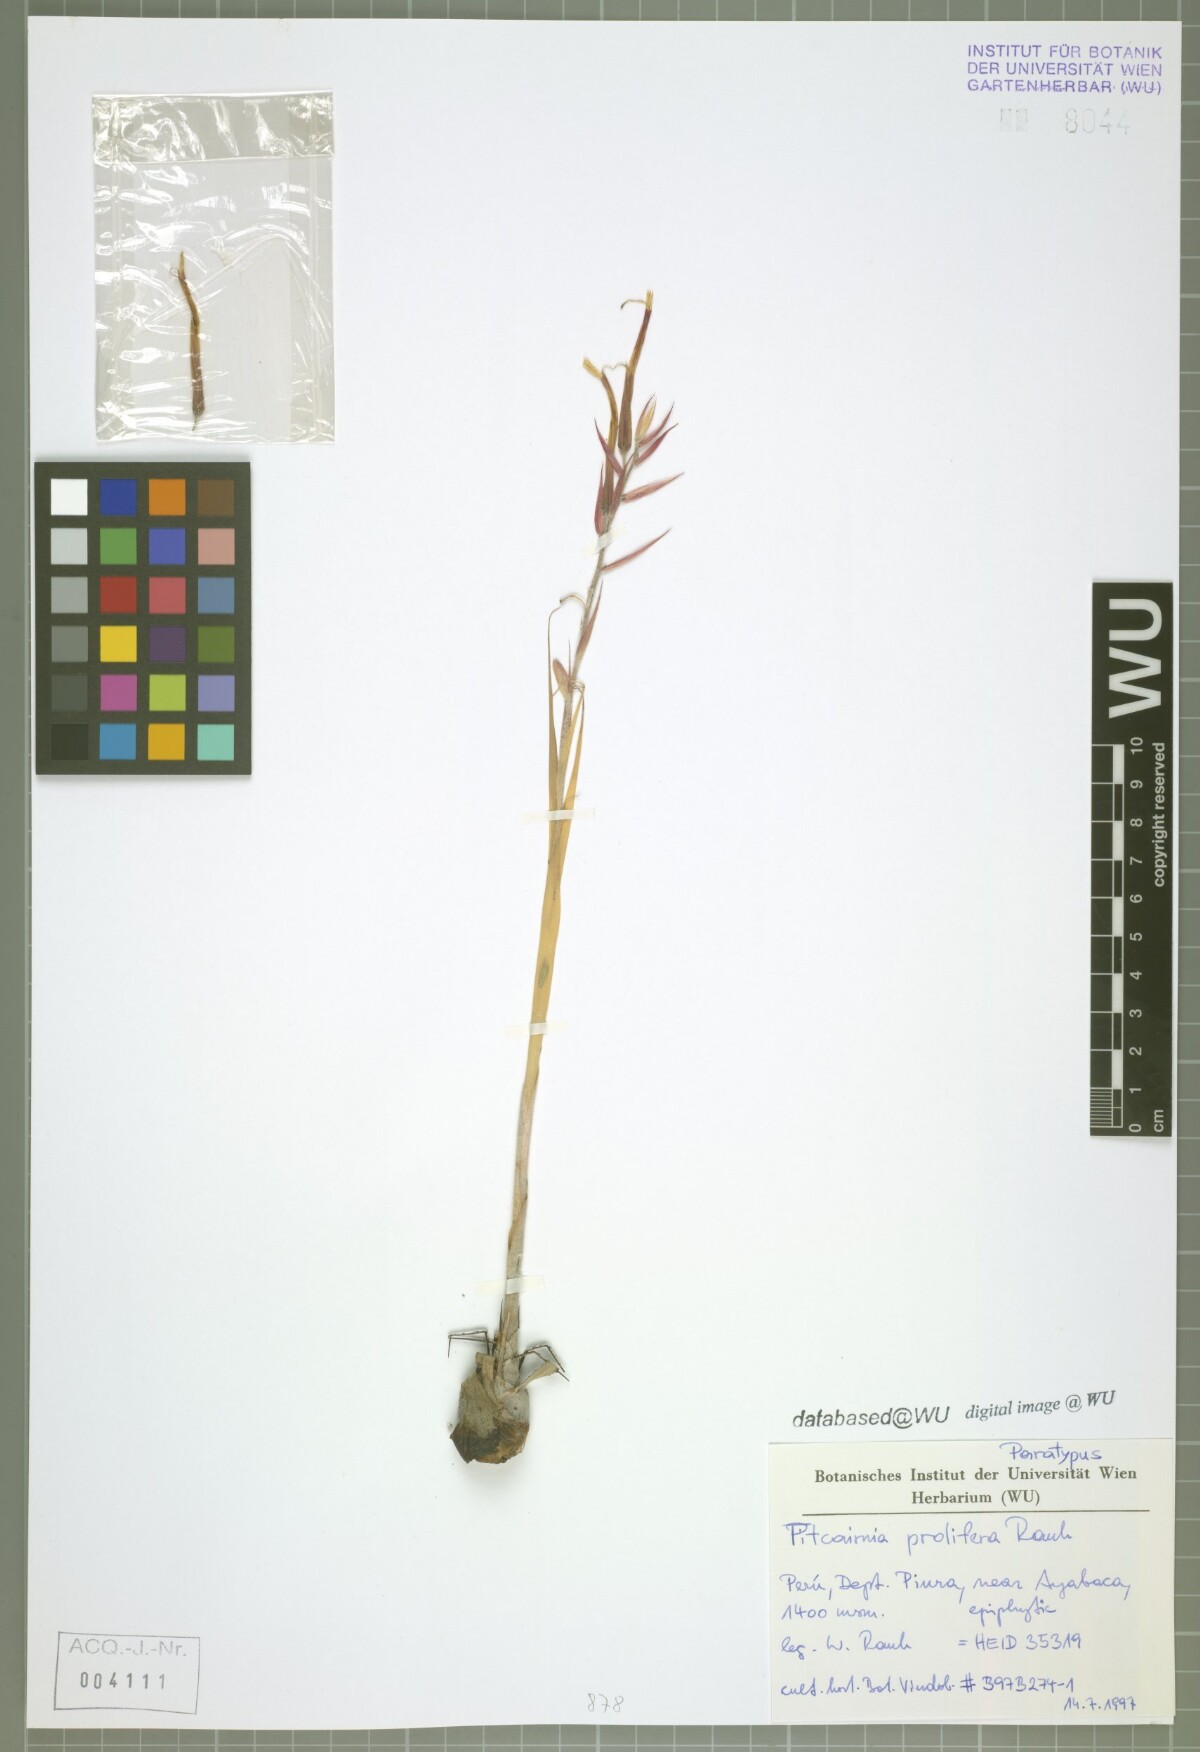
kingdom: Plantae
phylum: Tracheophyta
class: Liliopsida
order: Poales
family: Bromeliaceae
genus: Pitcairnia
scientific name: Pitcairnia prolifera
